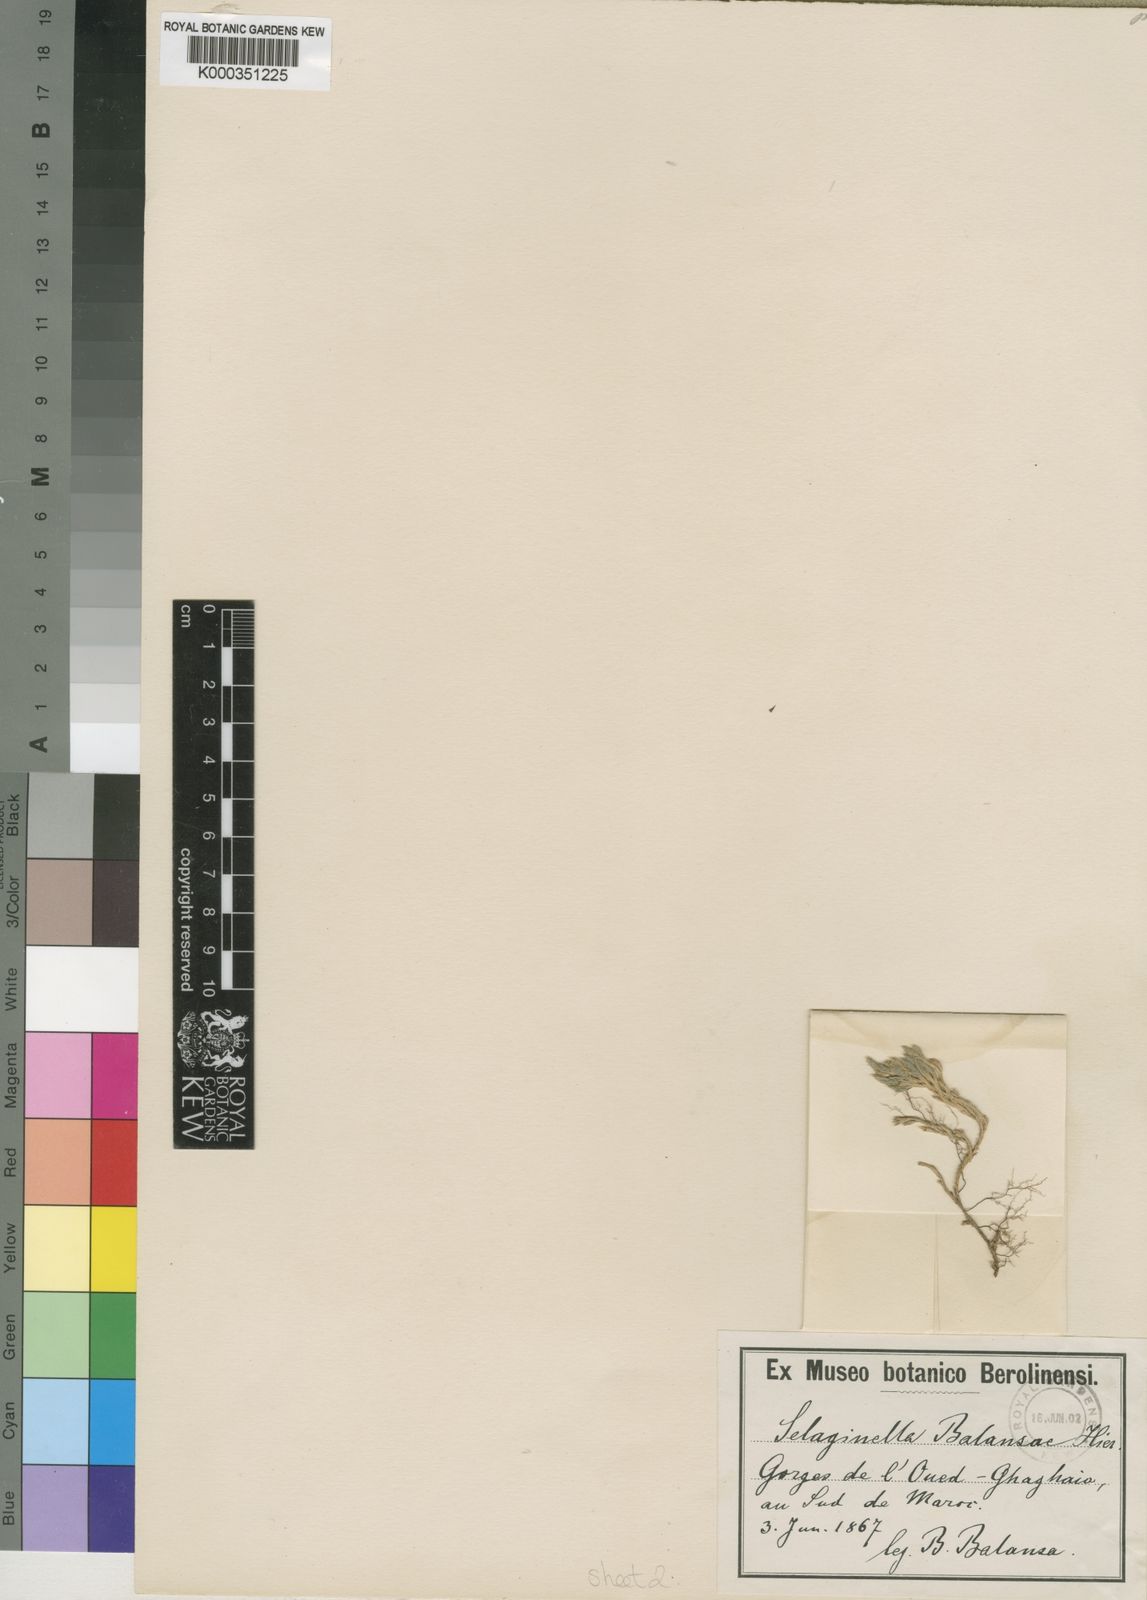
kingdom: Plantae
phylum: Tracheophyta
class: Lycopodiopsida
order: Selaginellales
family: Selaginellaceae
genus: Selaginella
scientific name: Selaginella balansae
